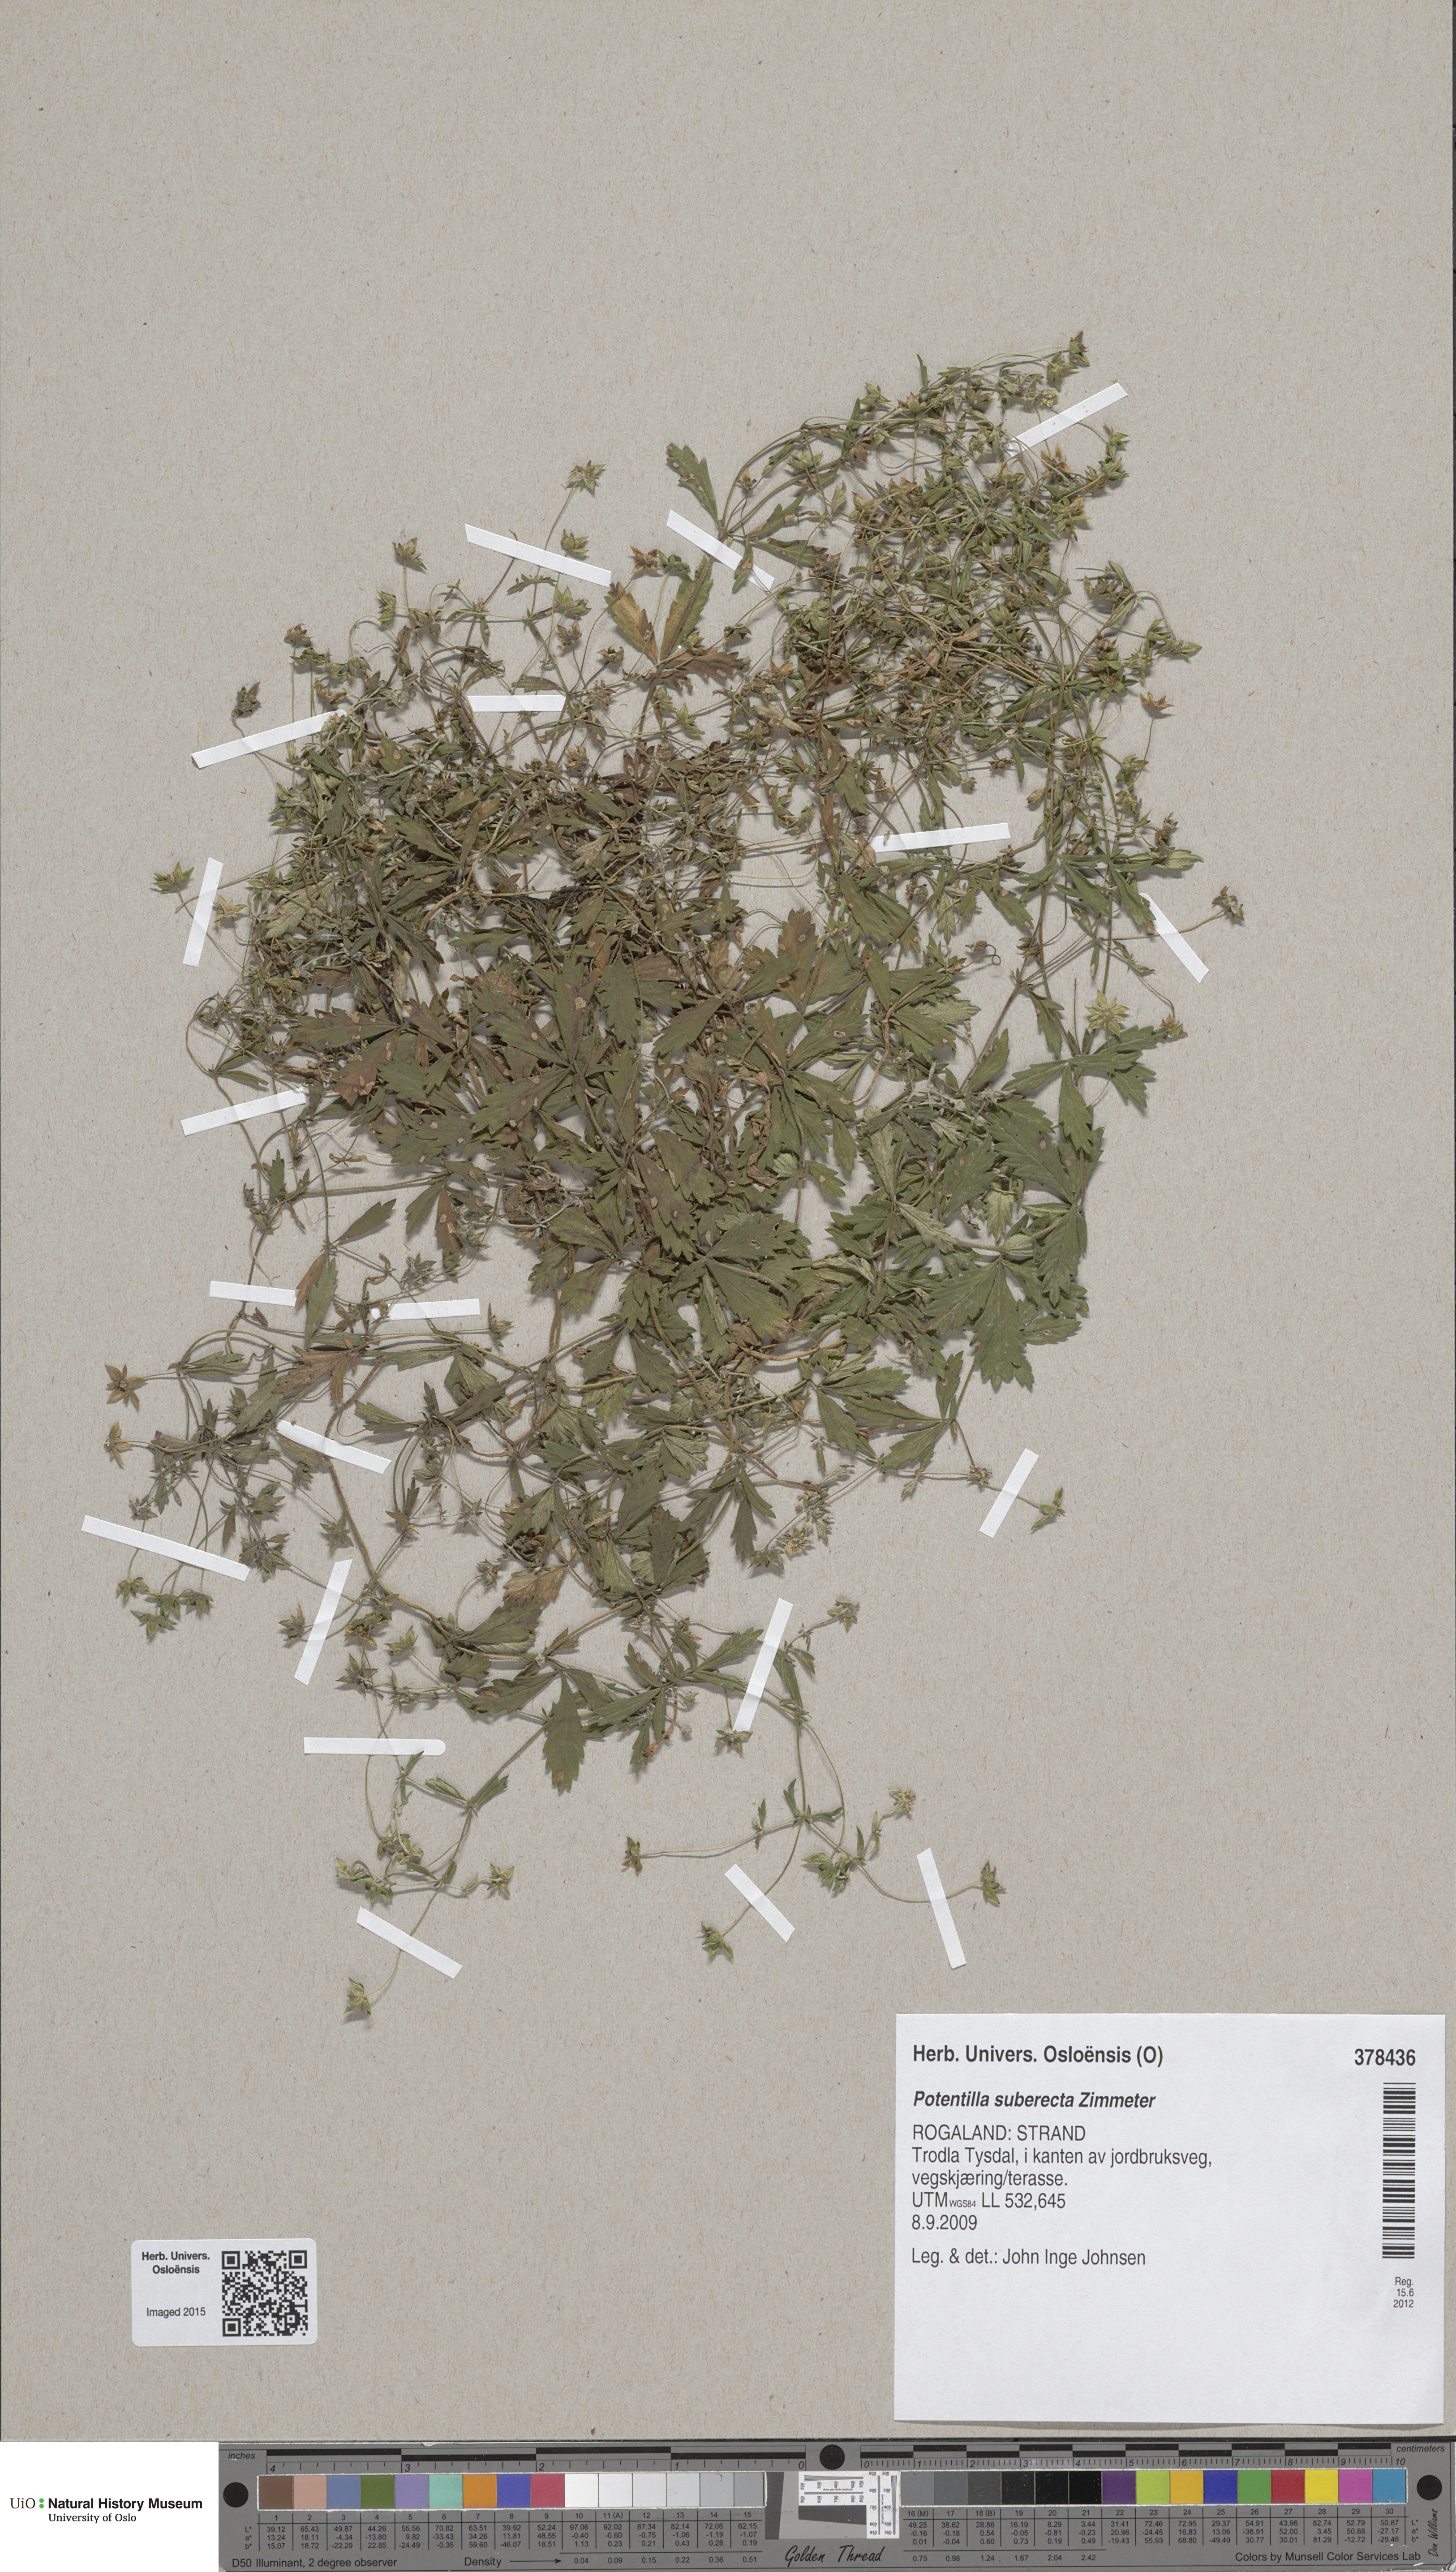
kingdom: Plantae
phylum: Tracheophyta
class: Magnoliopsida
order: Rosales
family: Rosaceae
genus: Potentilla
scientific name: Potentilla suberecta
